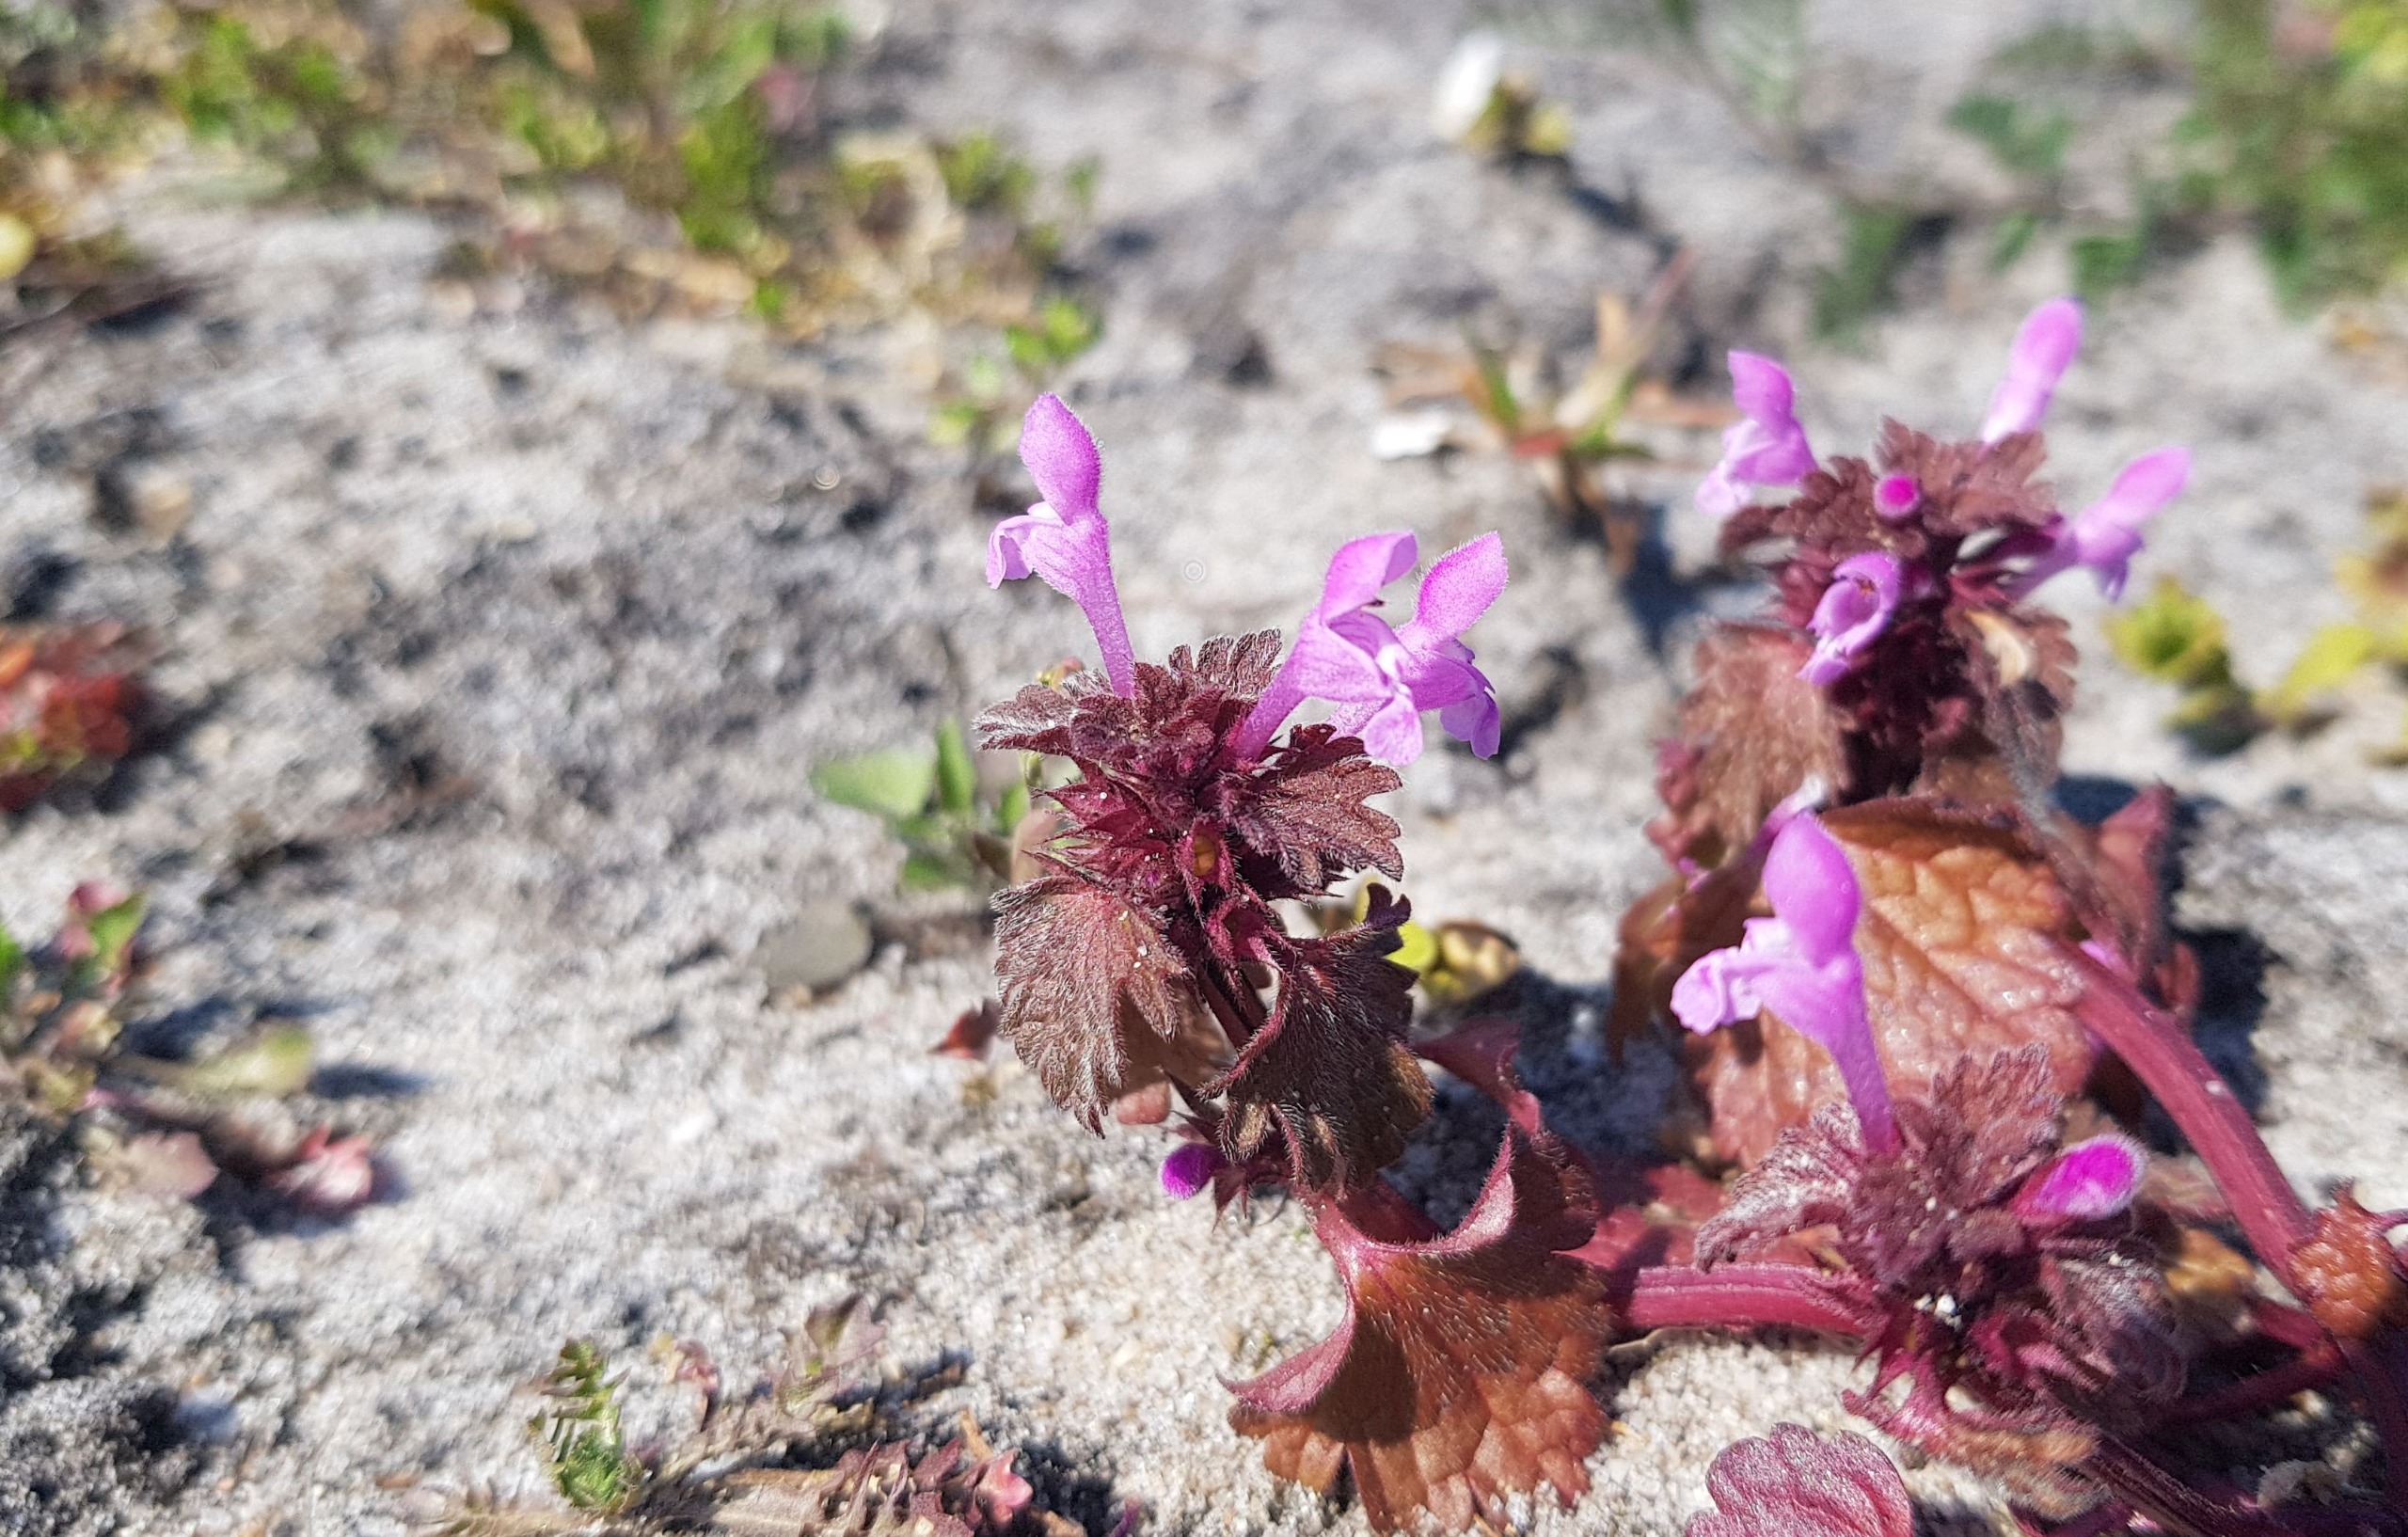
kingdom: Plantae
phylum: Tracheophyta
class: Magnoliopsida
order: Lamiales
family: Lamiaceae
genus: Lamium
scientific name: Lamium hybridum
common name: Fliget tvetand
